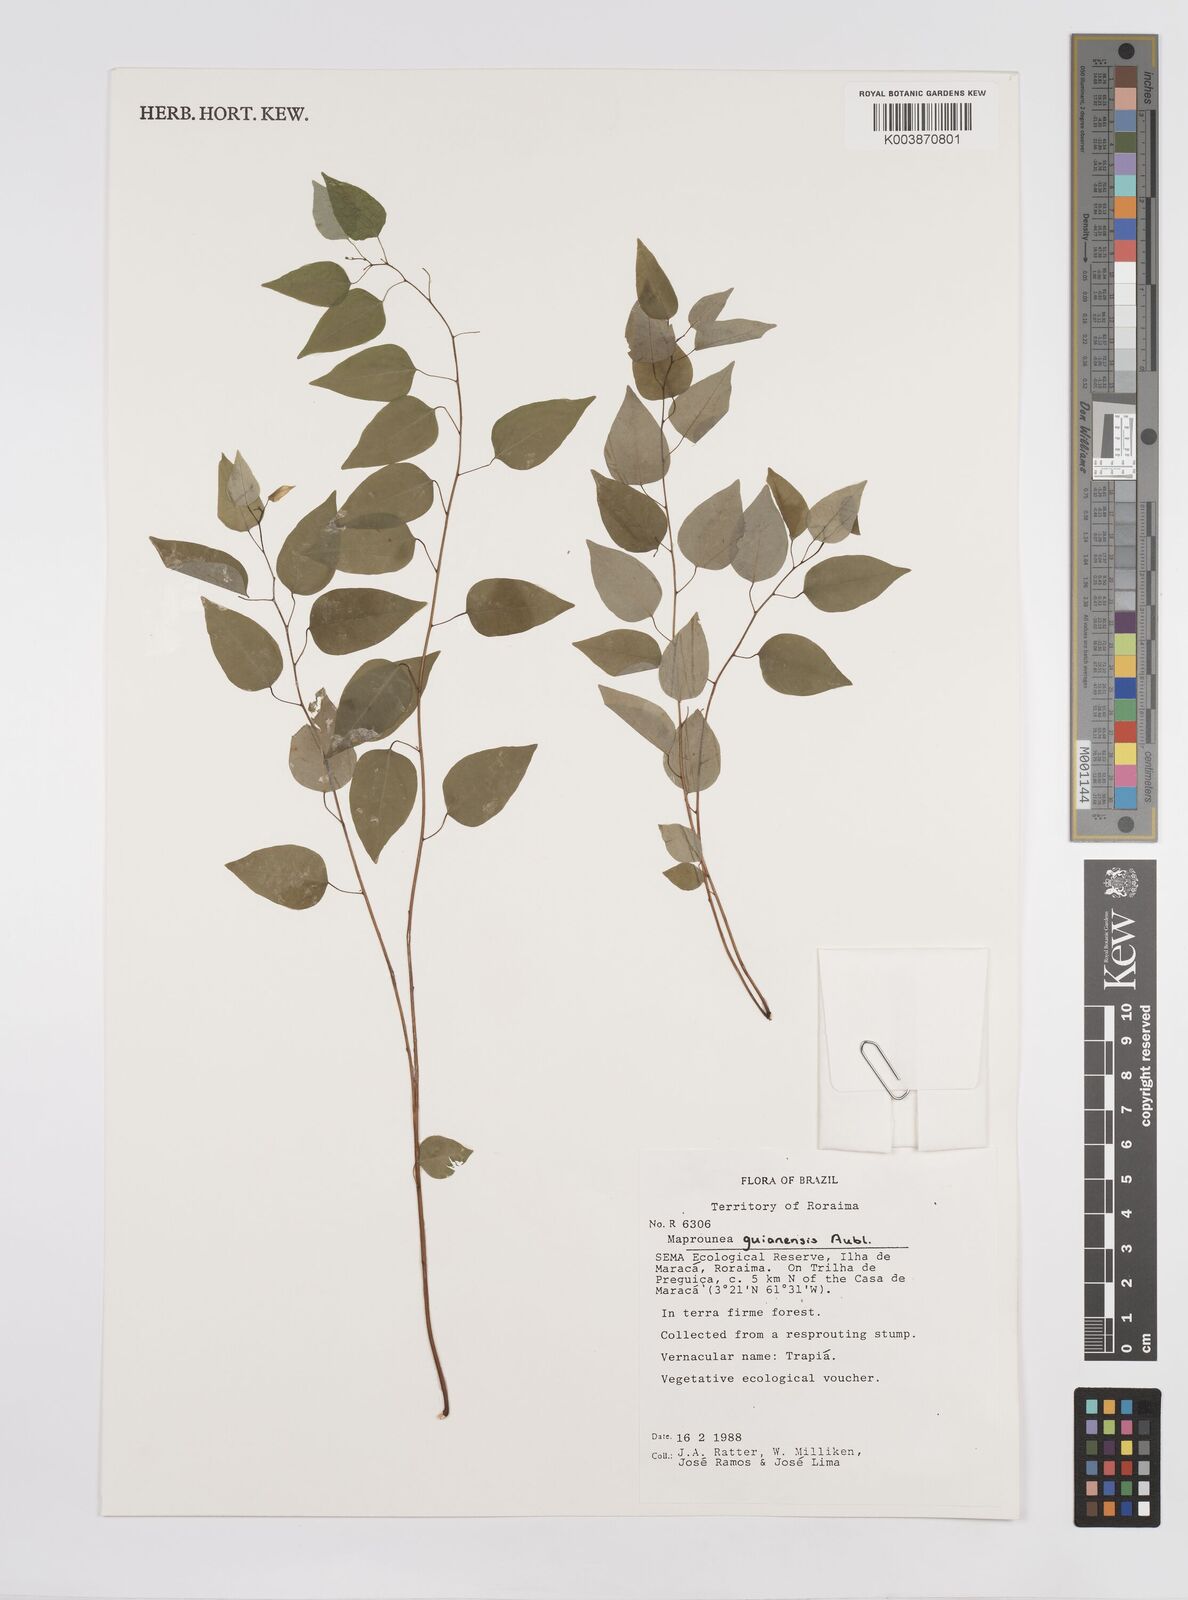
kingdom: Plantae
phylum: Tracheophyta
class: Magnoliopsida
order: Malpighiales
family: Euphorbiaceae
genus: Maprounea
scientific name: Maprounea guianensis
